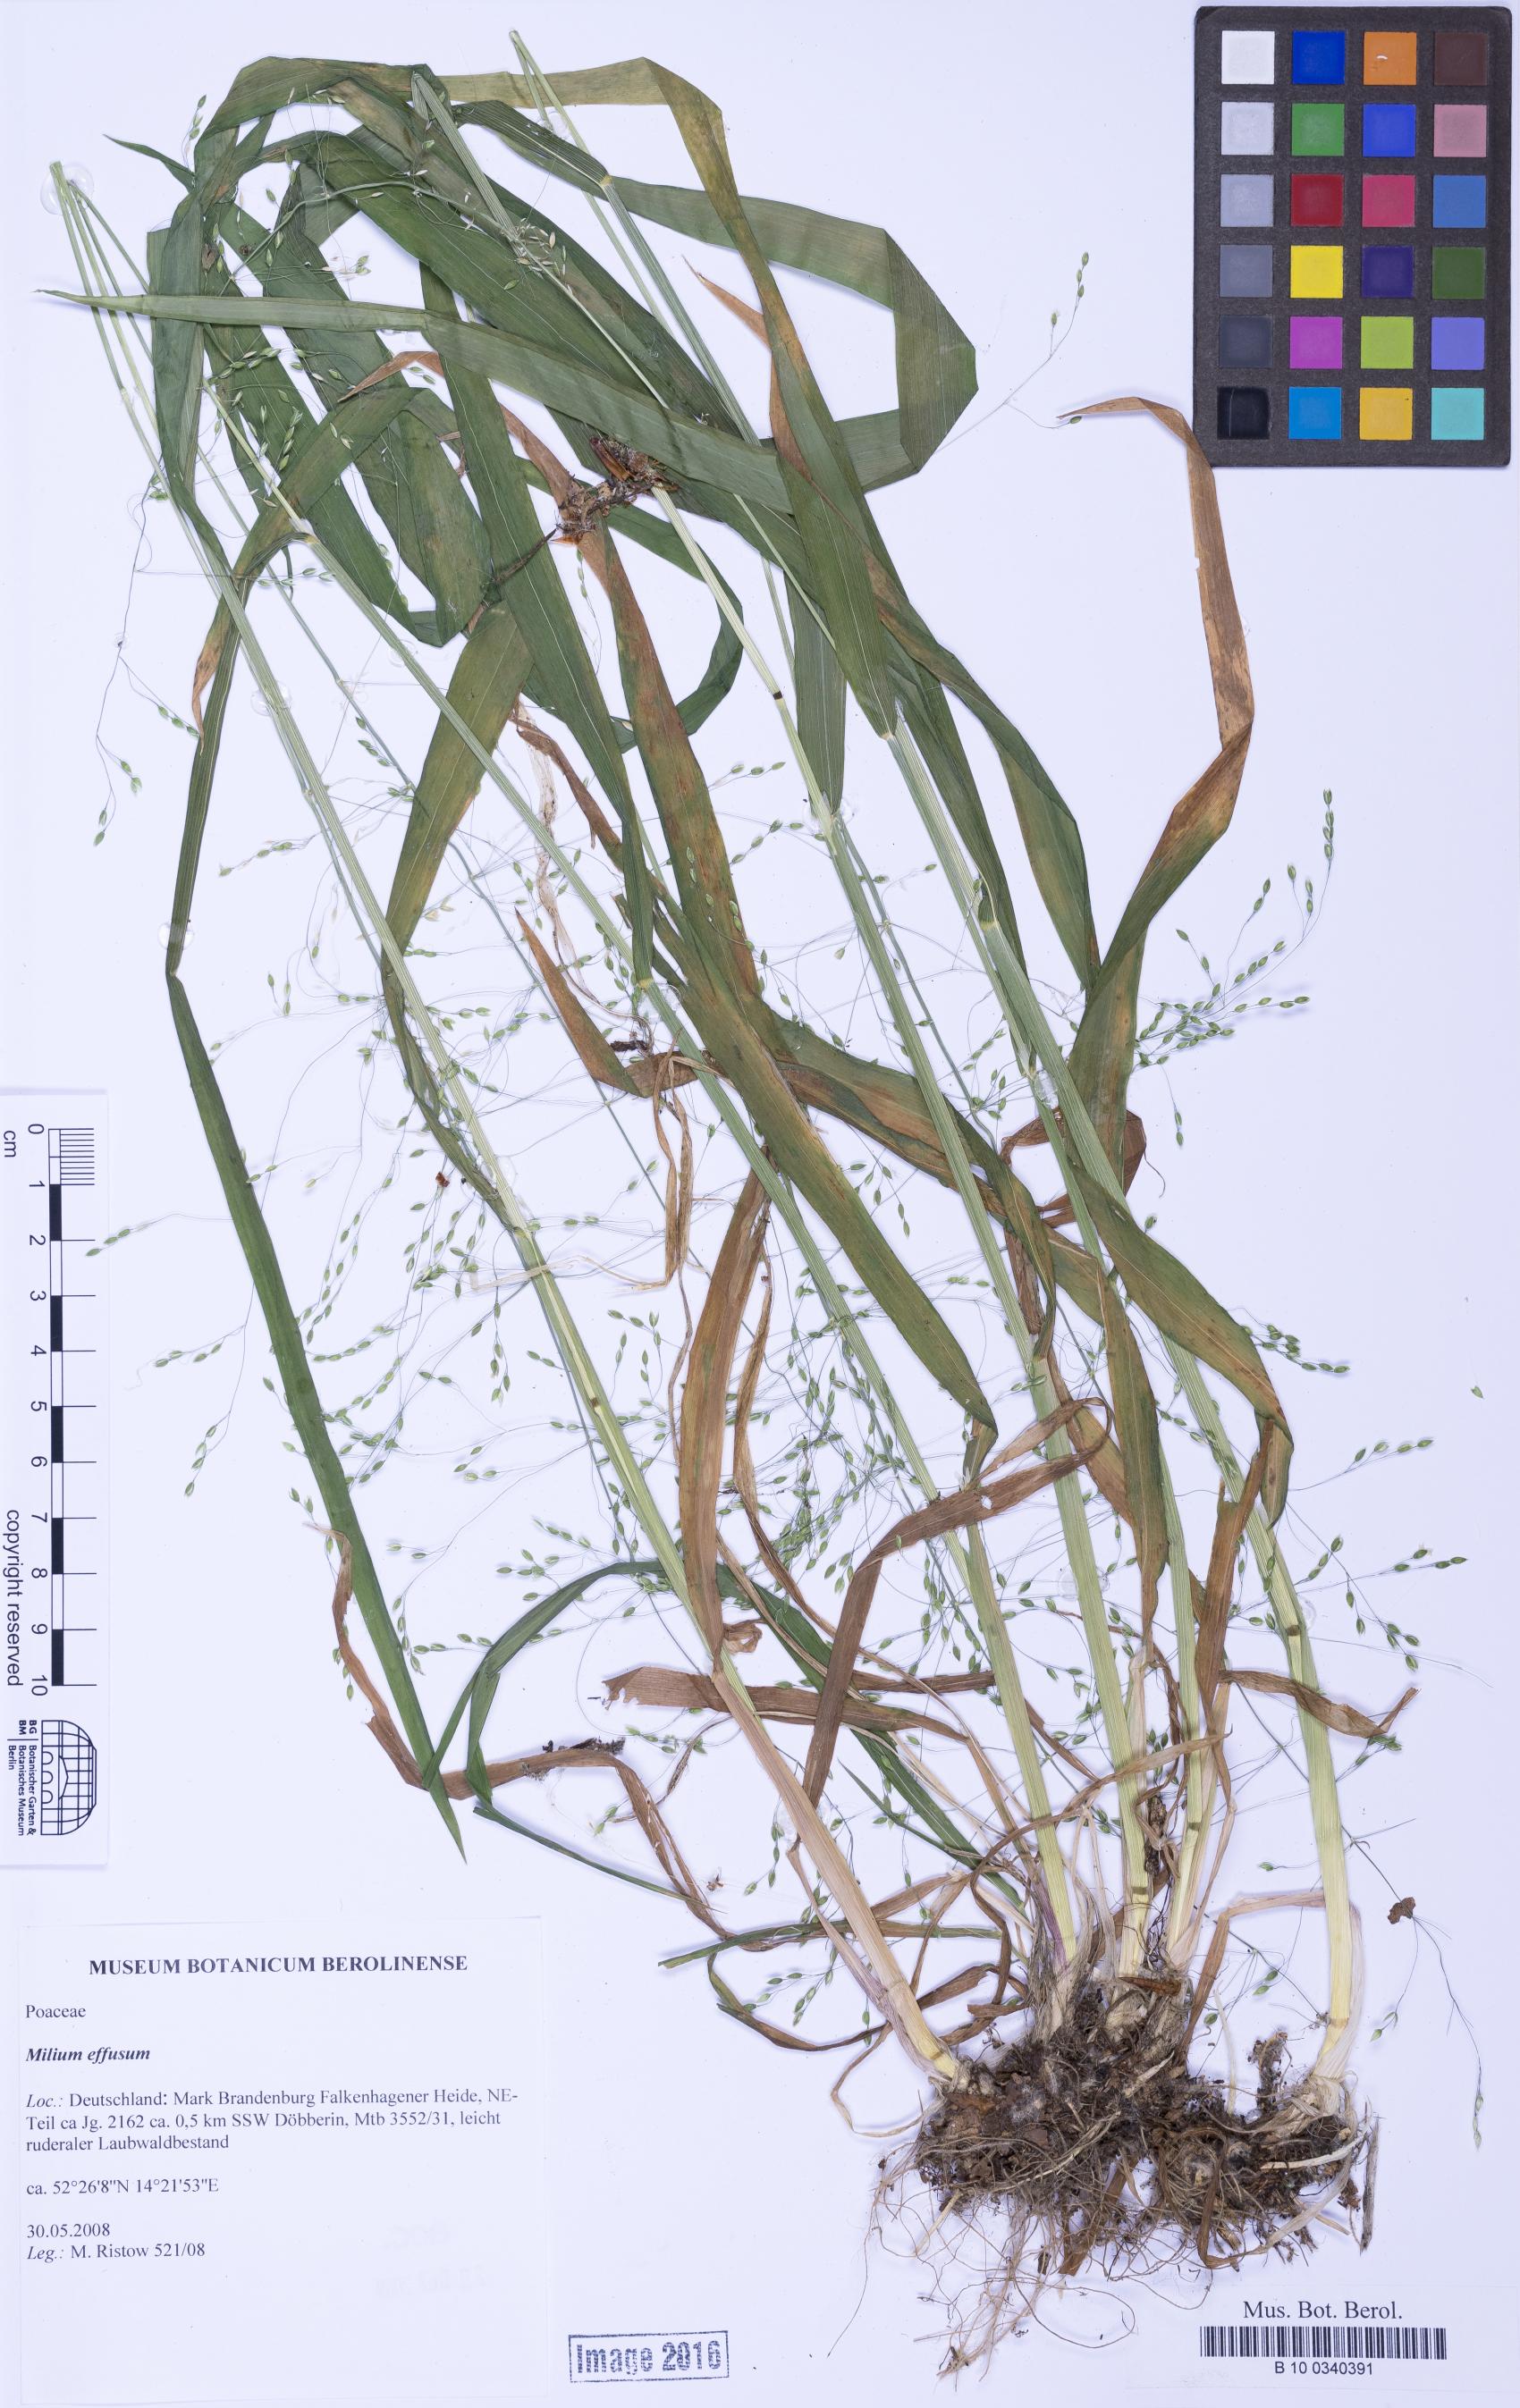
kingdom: Plantae
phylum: Tracheophyta
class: Liliopsida
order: Poales
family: Poaceae
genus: Milium
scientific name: Milium effusum
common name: Wood millet
